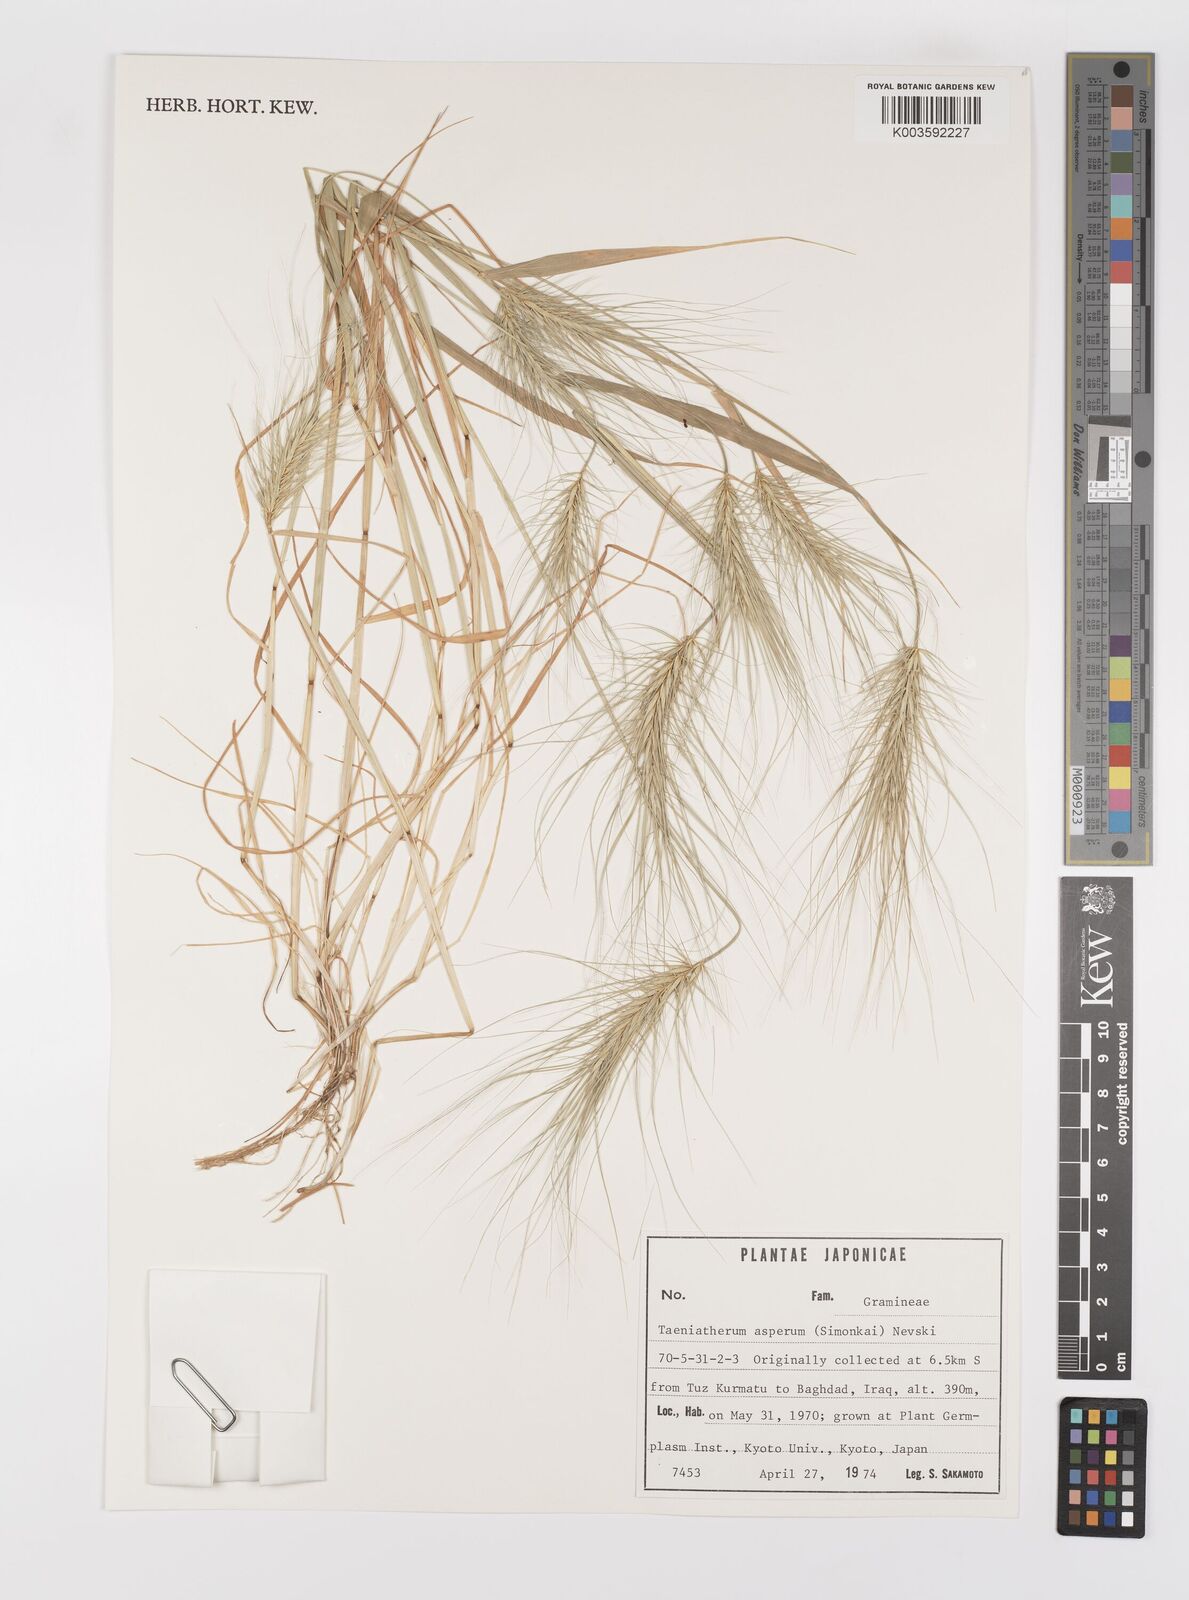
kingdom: Plantae
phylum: Tracheophyta
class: Liliopsida
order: Poales
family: Poaceae
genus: Taeniatherum
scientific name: Taeniatherum caput-medusae
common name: Medusahead
